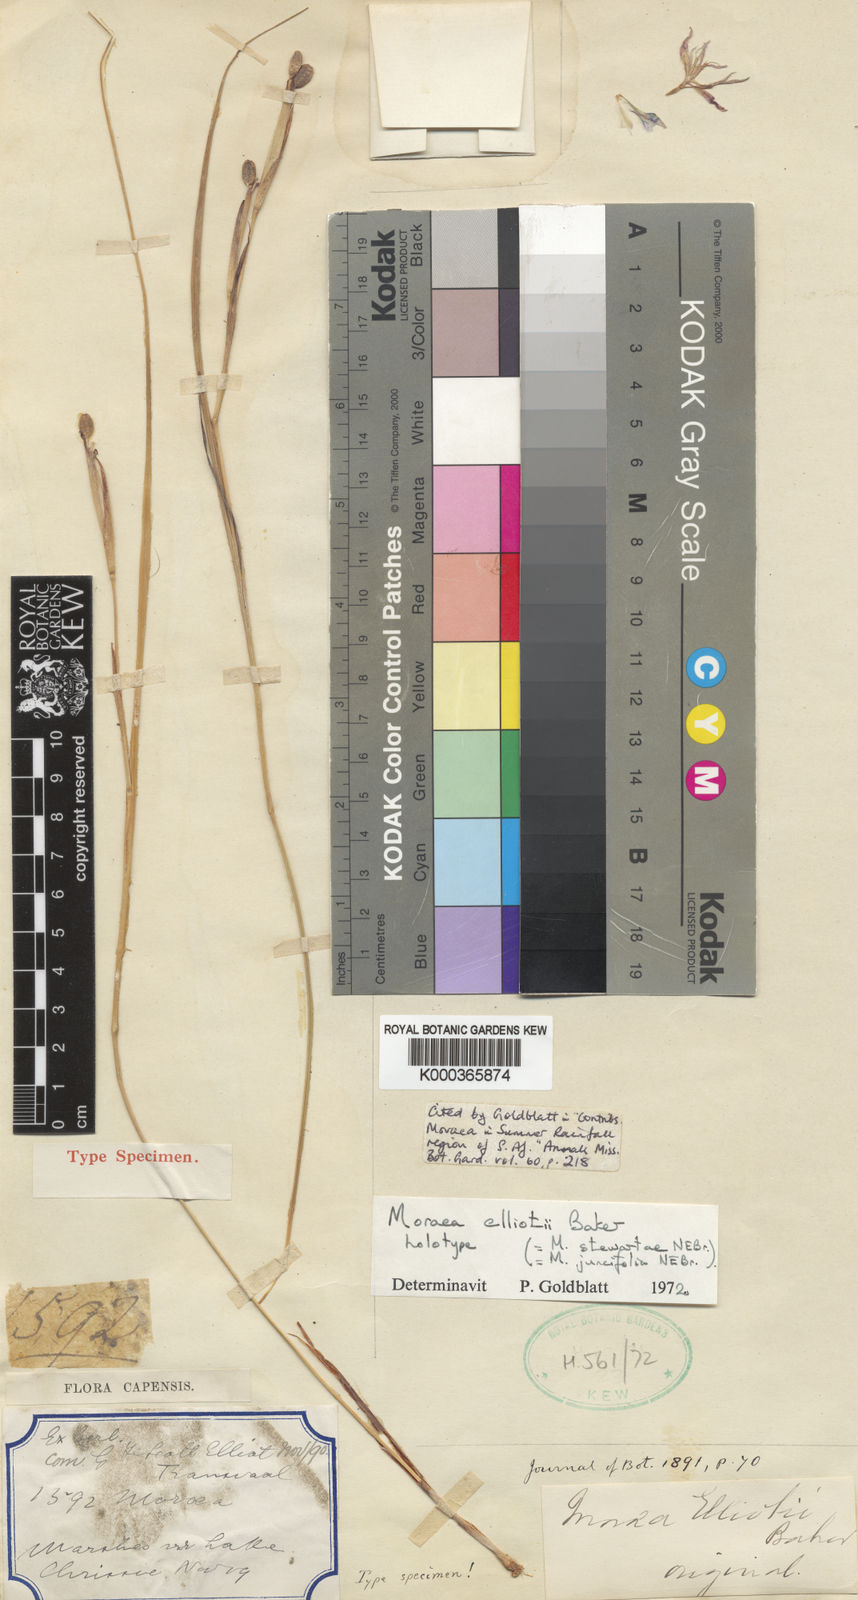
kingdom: Plantae
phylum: Tracheophyta
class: Liliopsida
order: Asparagales
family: Iridaceae
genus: Moraea
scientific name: Moraea elliotii
